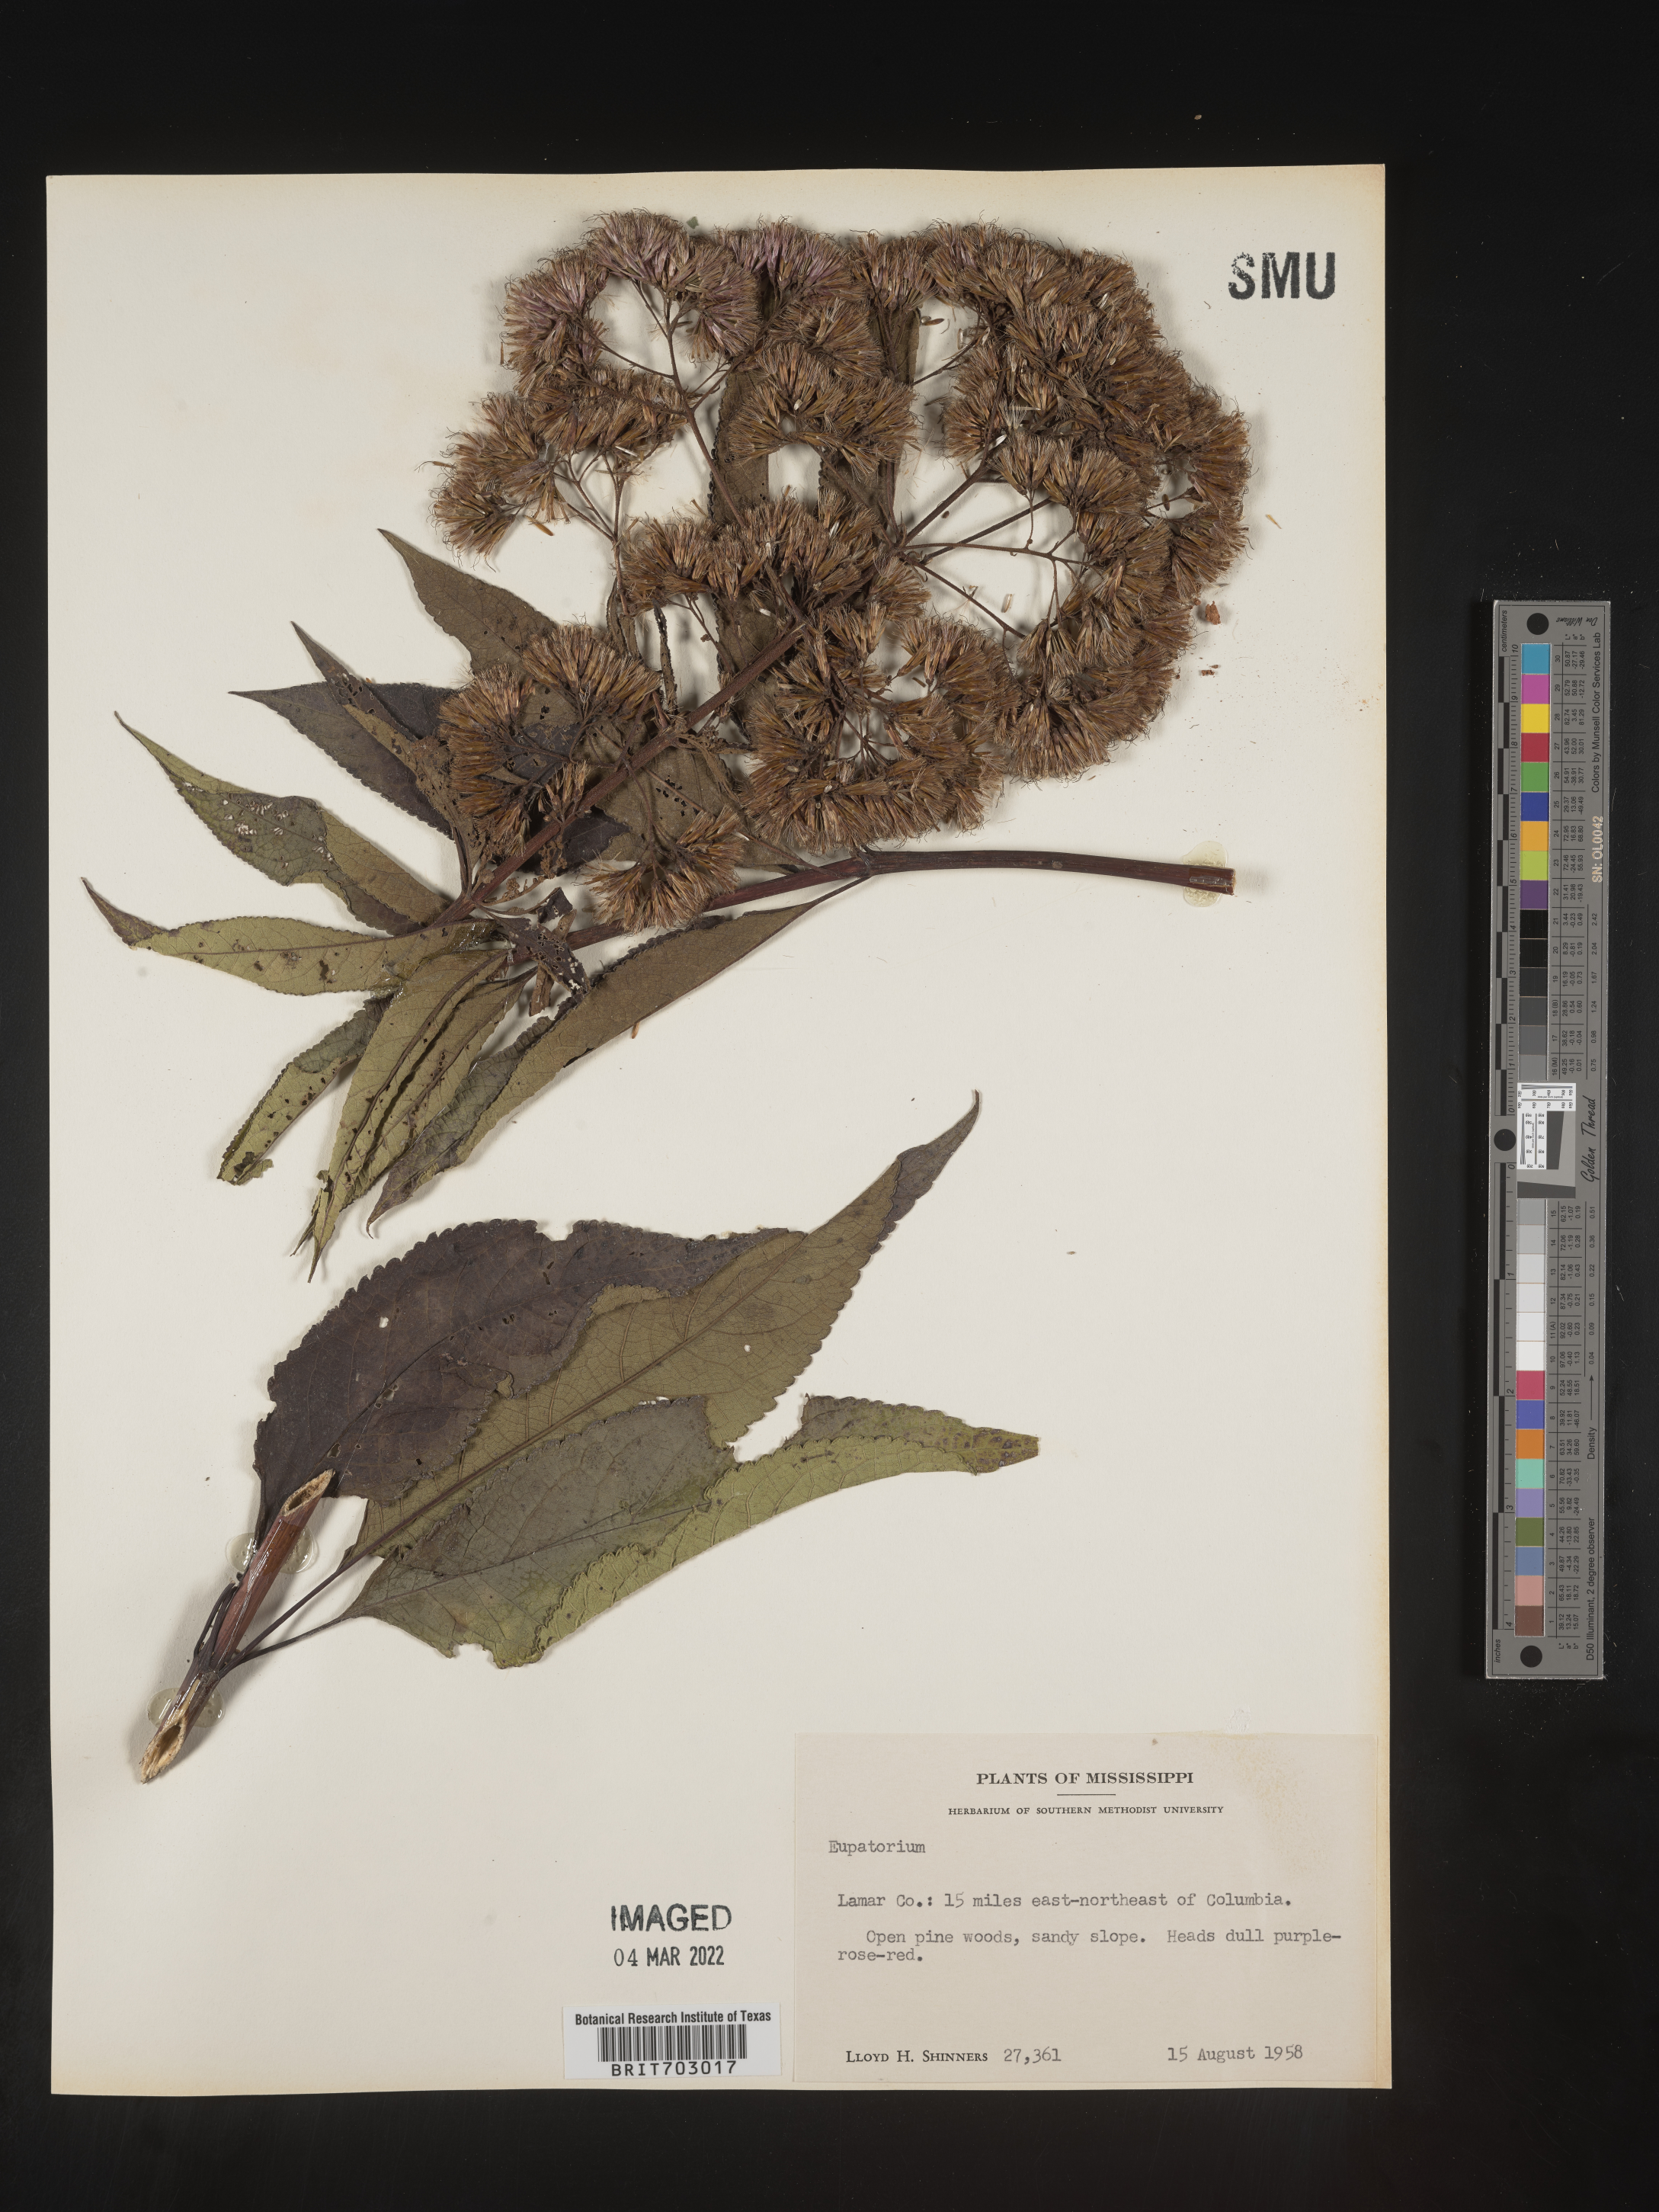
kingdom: Plantae
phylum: Tracheophyta
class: Magnoliopsida
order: Asterales
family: Asteraceae
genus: Eupatorium
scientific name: Eupatorium
